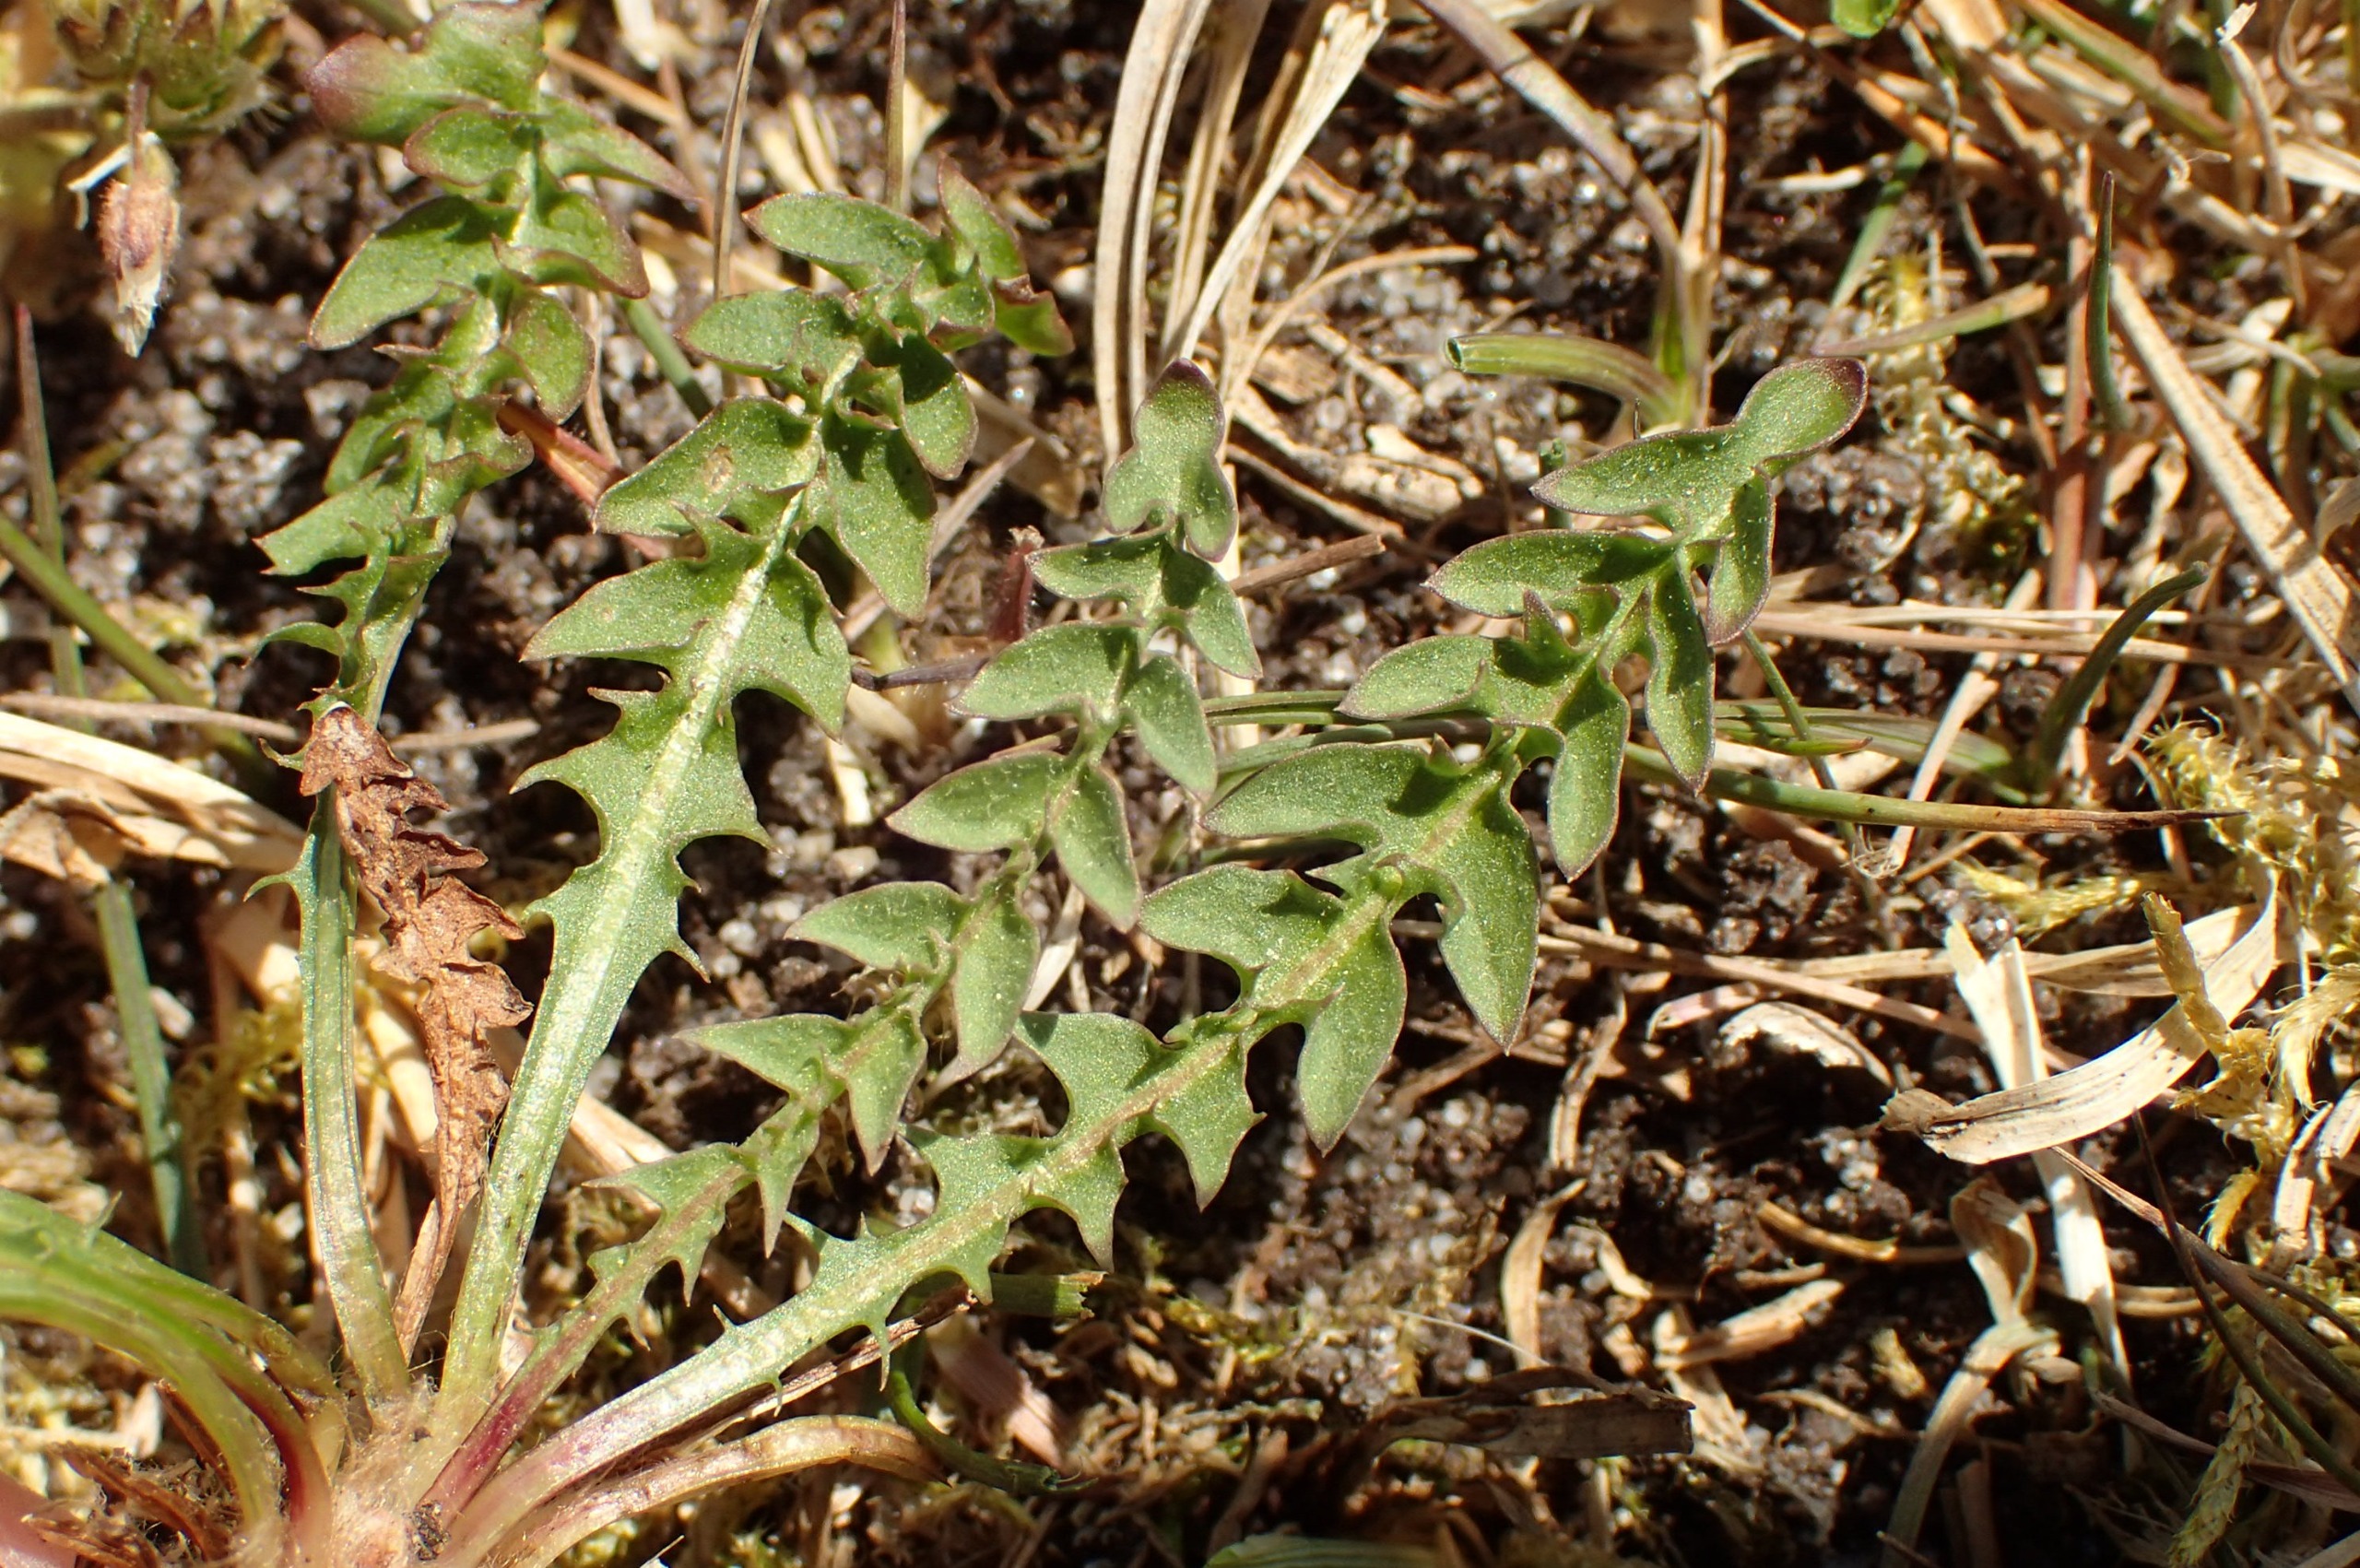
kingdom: Plantae
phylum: Tracheophyta
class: Magnoliopsida
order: Asterales
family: Asteraceae
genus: Taraxacum
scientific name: Taraxacum obliquum
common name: Gråfrugtet dværgmælkebøtte
